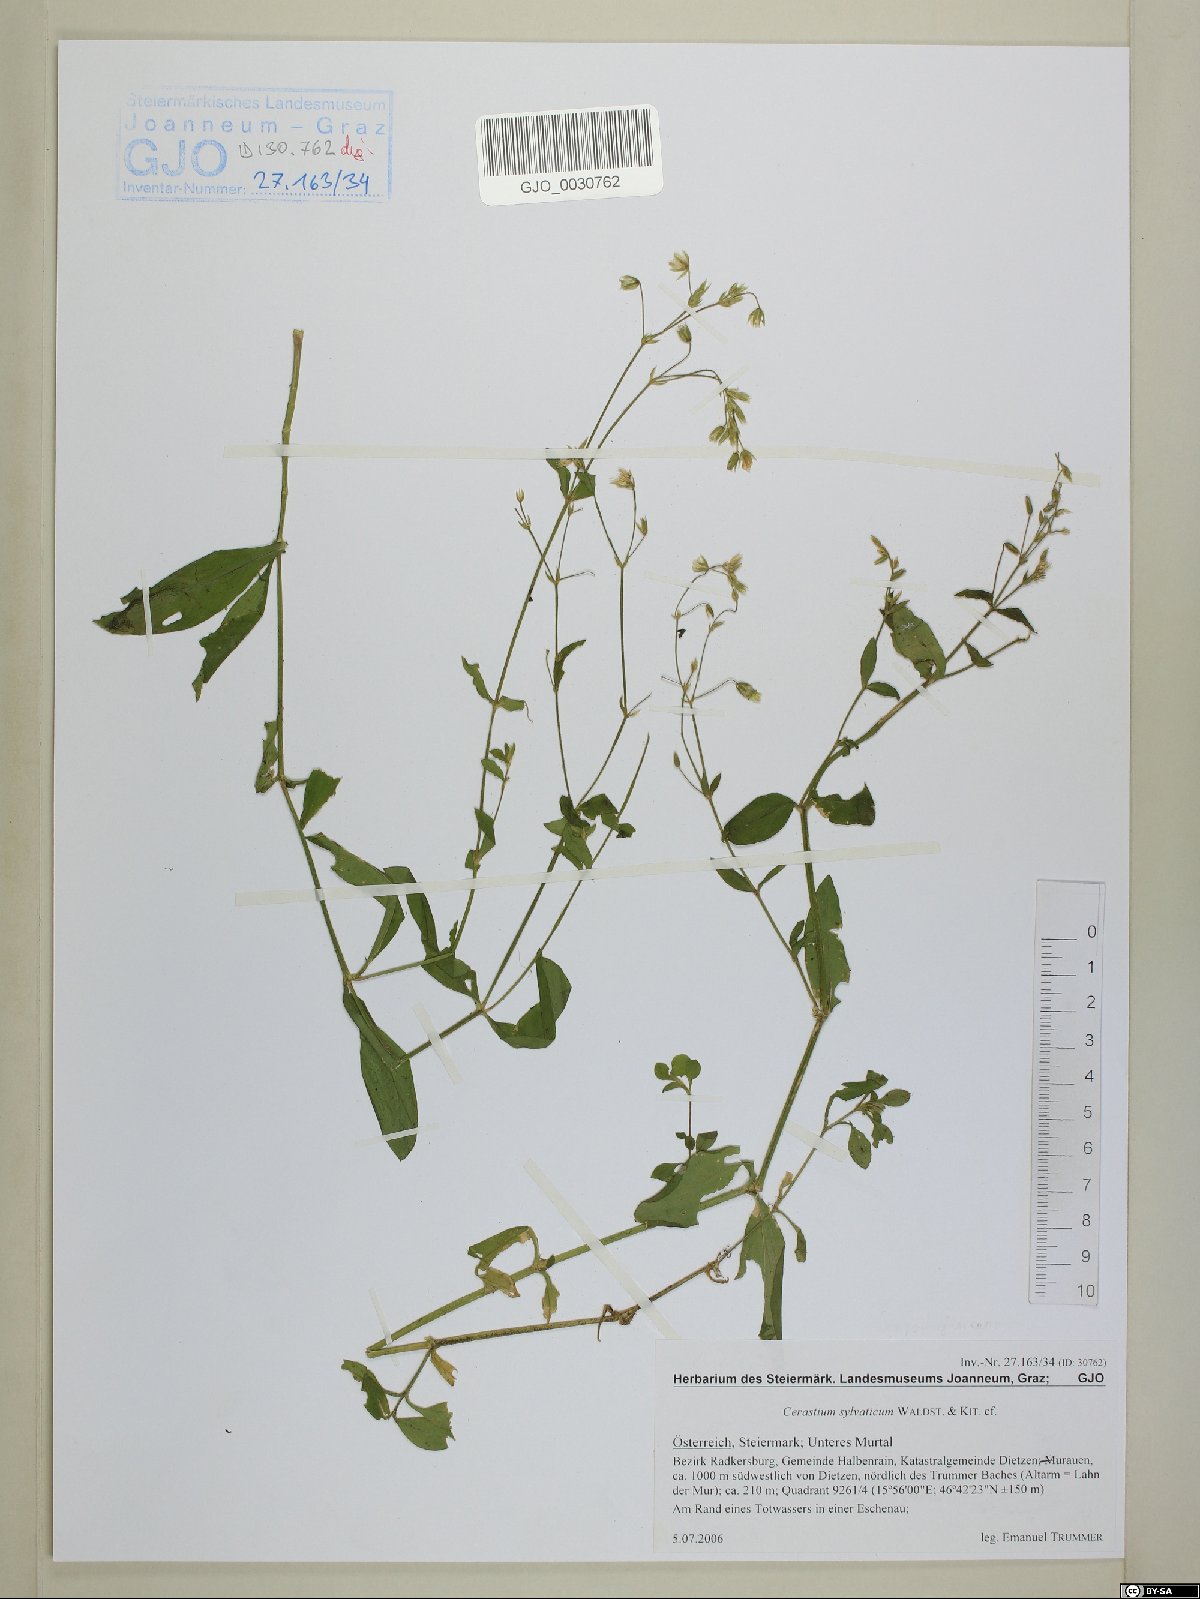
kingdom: Plantae
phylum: Tracheophyta
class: Magnoliopsida
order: Caryophyllales
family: Caryophyllaceae
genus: Cerastium
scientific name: Cerastium sylvaticum
